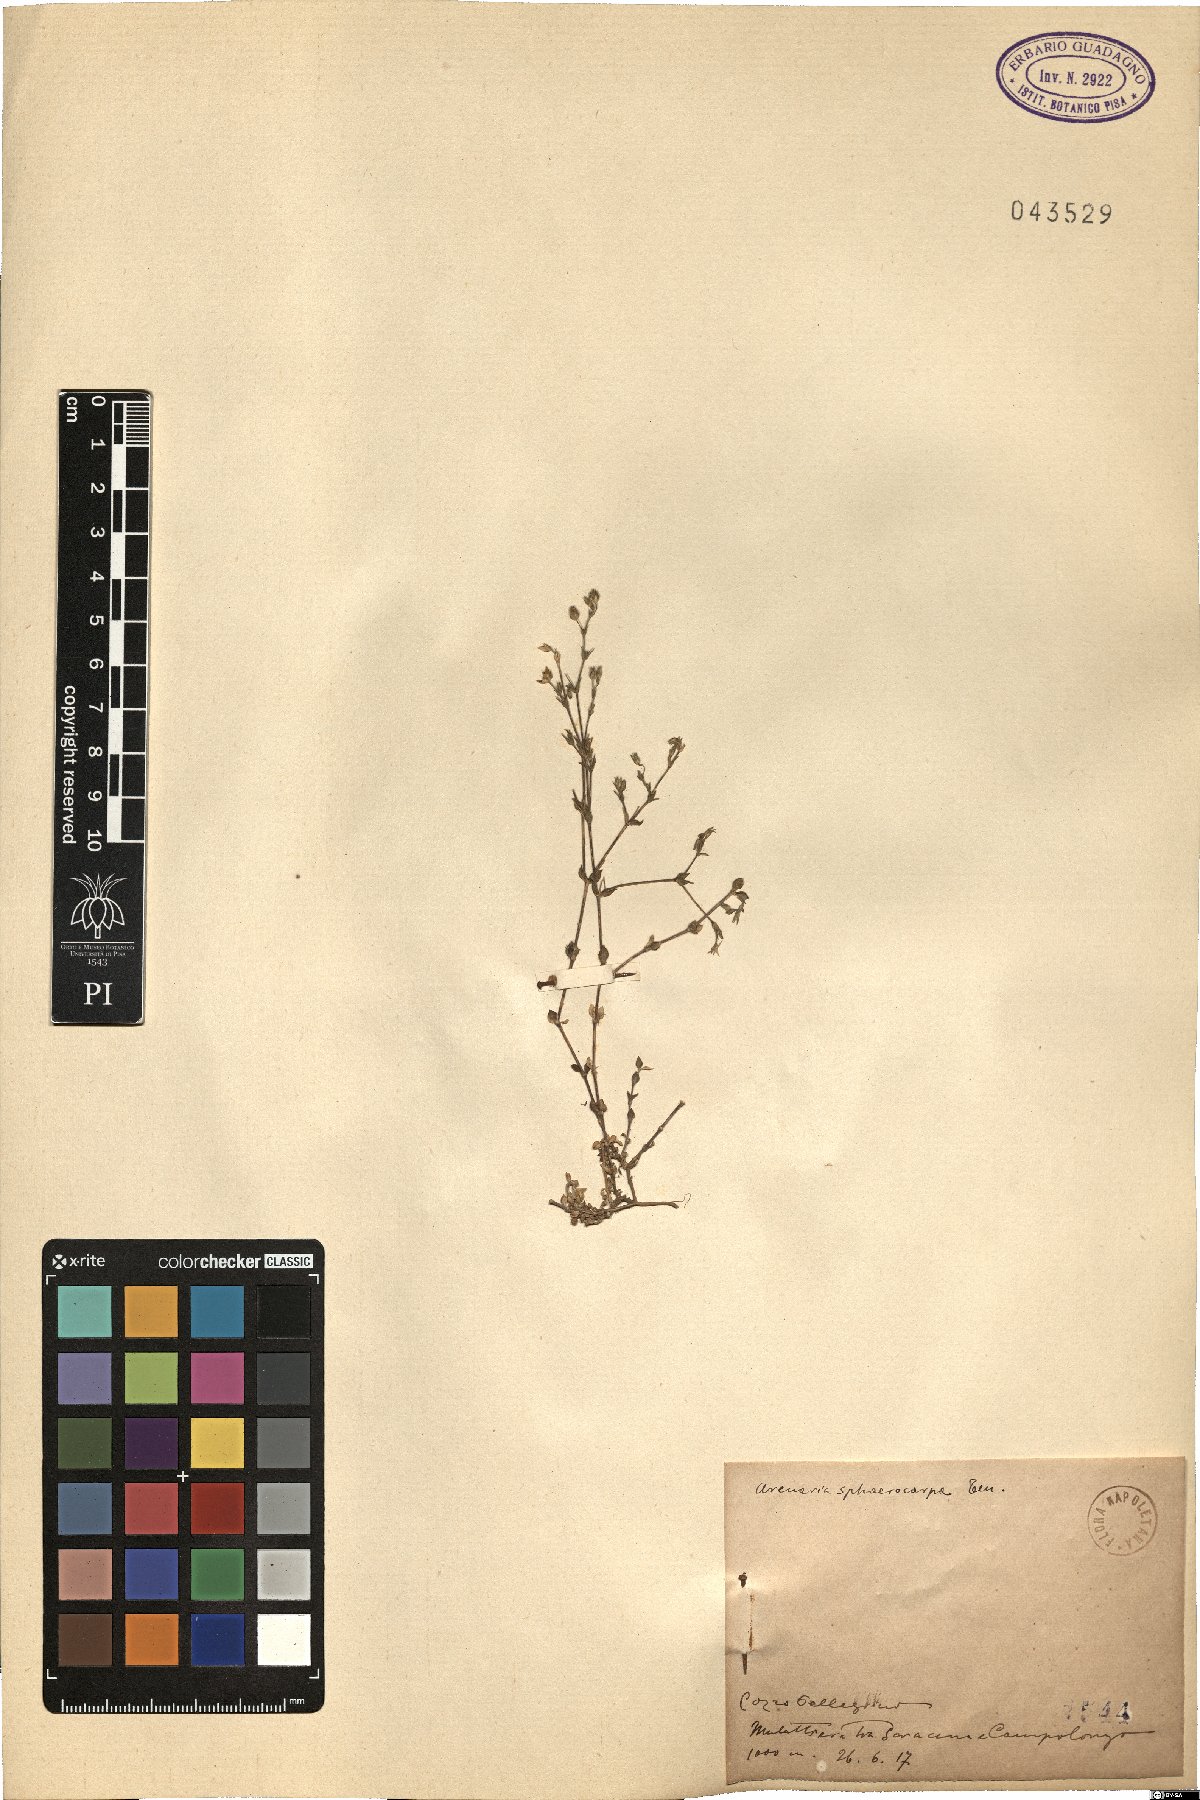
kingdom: Plantae
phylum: Tracheophyta
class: Magnoliopsida
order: Caryophyllales
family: Caryophyllaceae
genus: Arenaria
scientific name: Arenaria serpyllifolia
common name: Thyme-leaved sandwort
